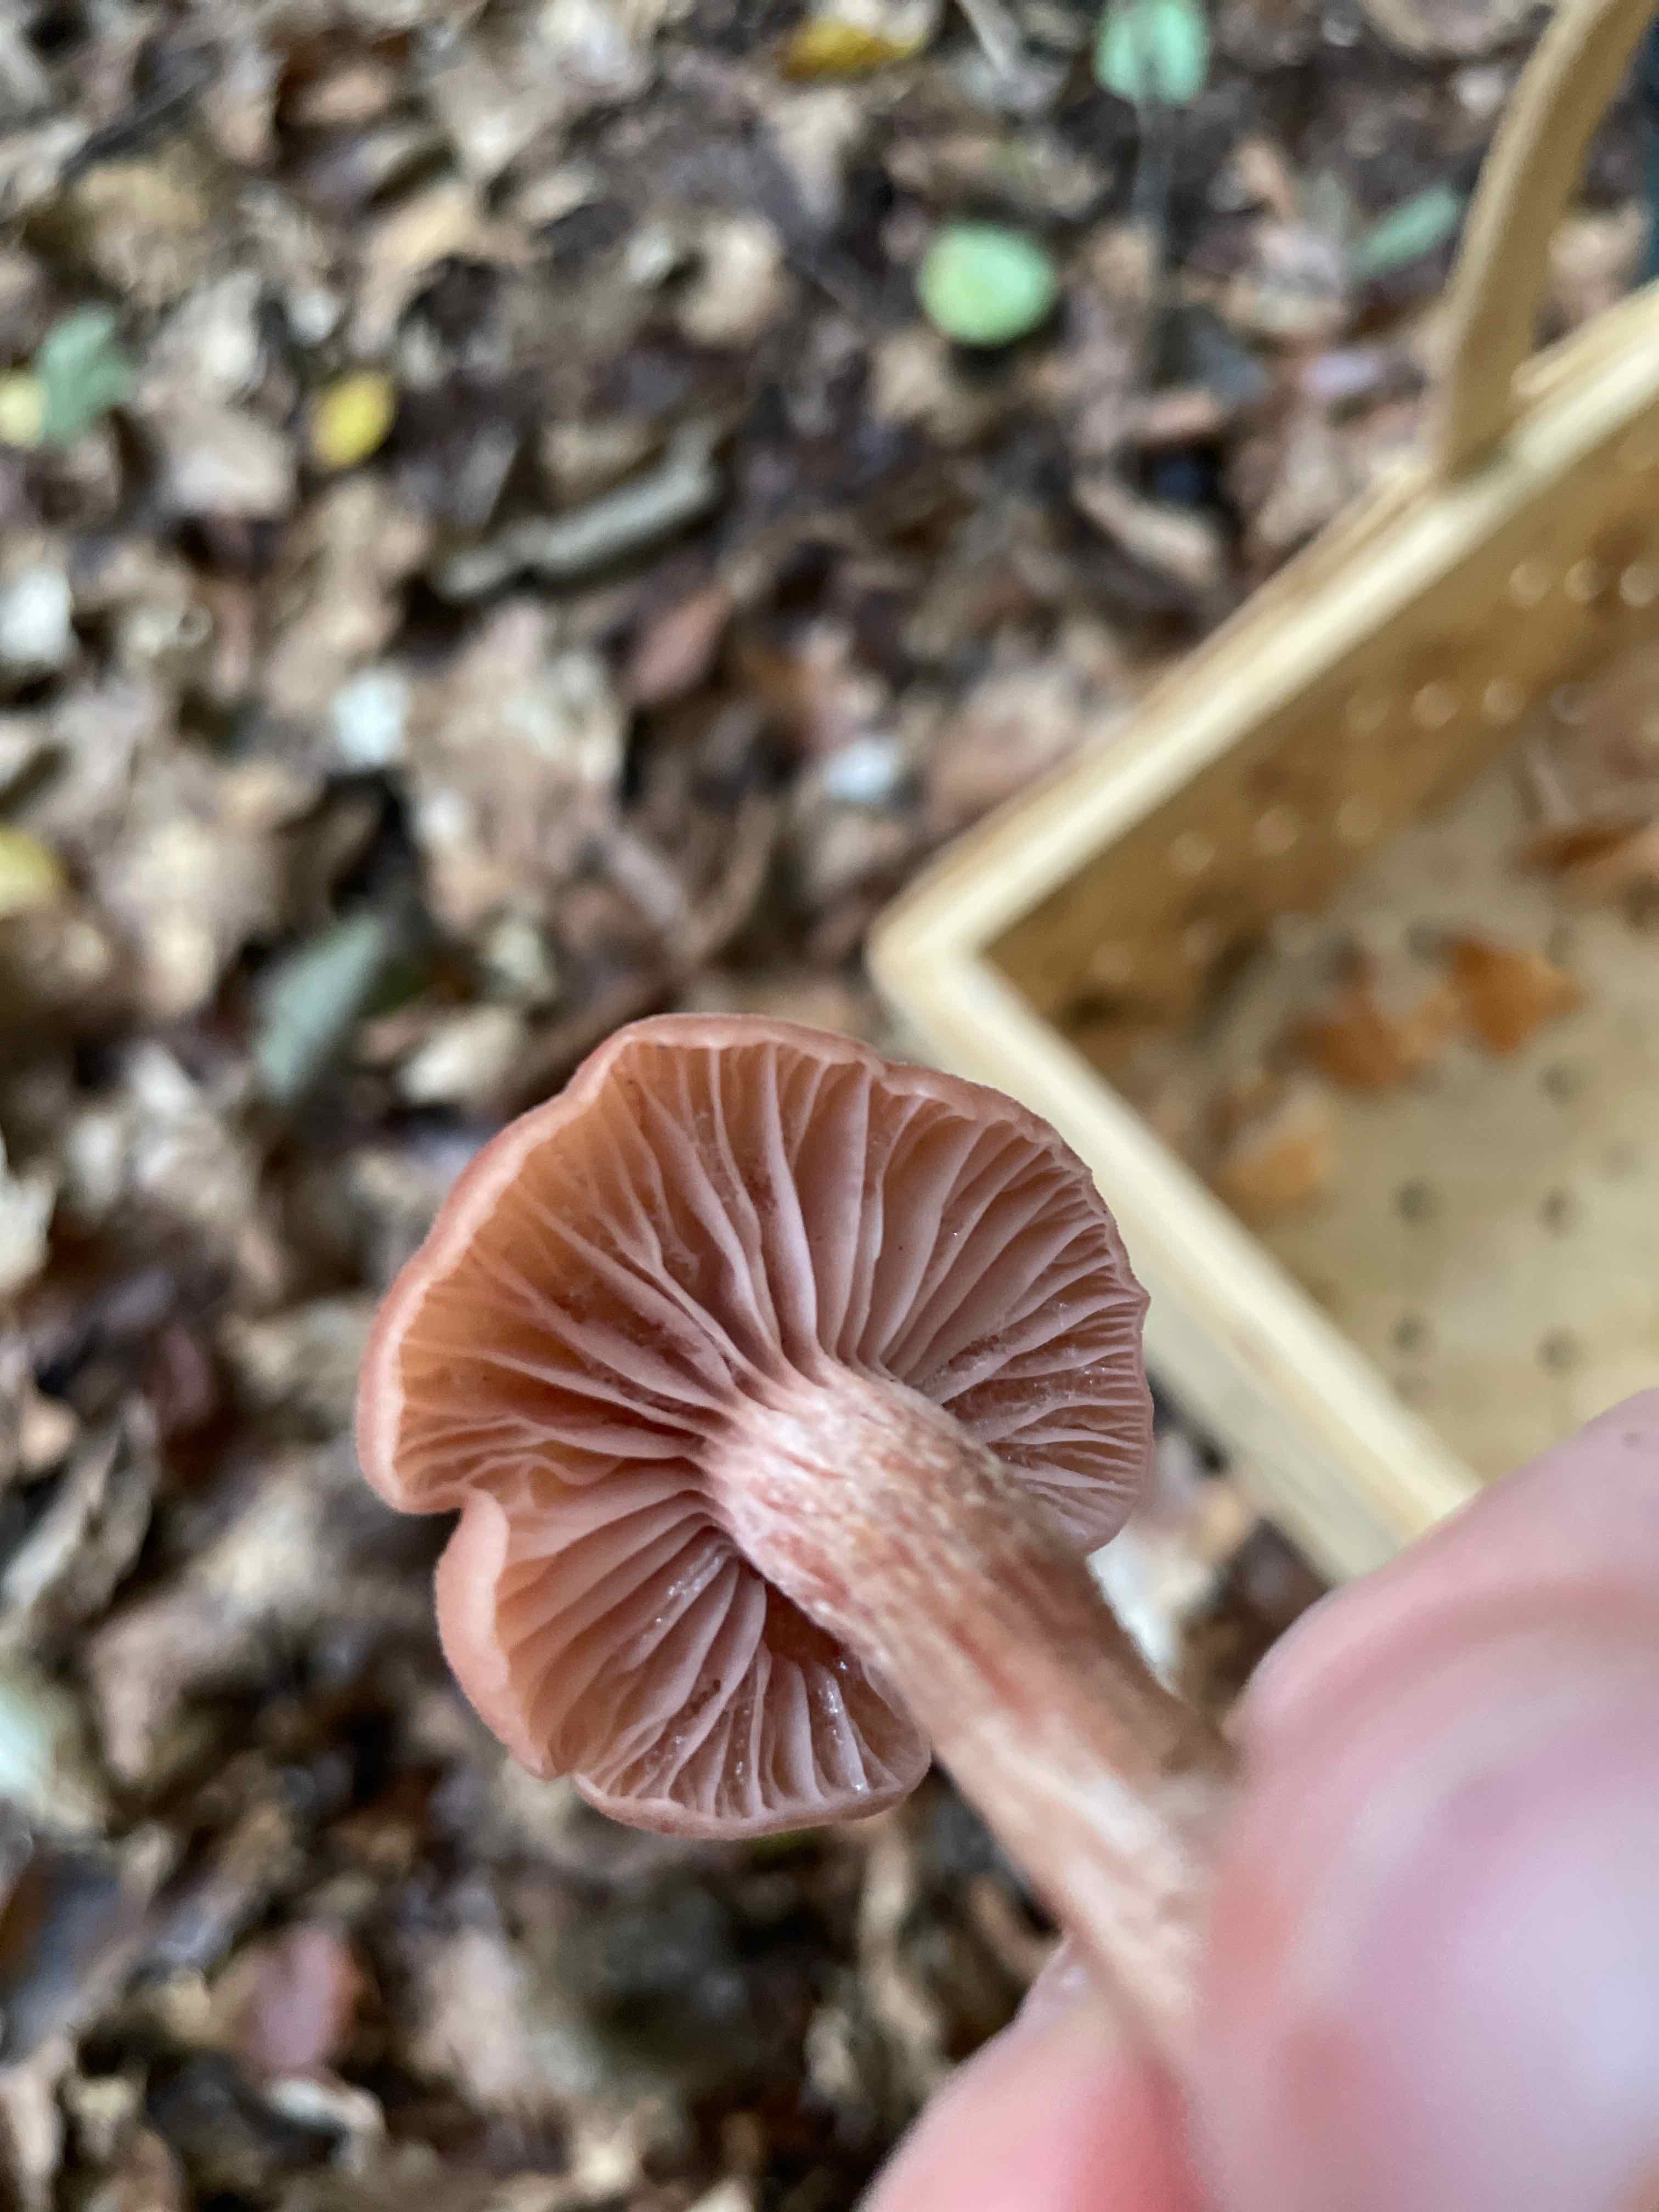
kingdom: Fungi
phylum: Basidiomycota
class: Agaricomycetes
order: Agaricales
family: Hydnangiaceae
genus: Laccaria
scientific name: Laccaria
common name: ametysthat
